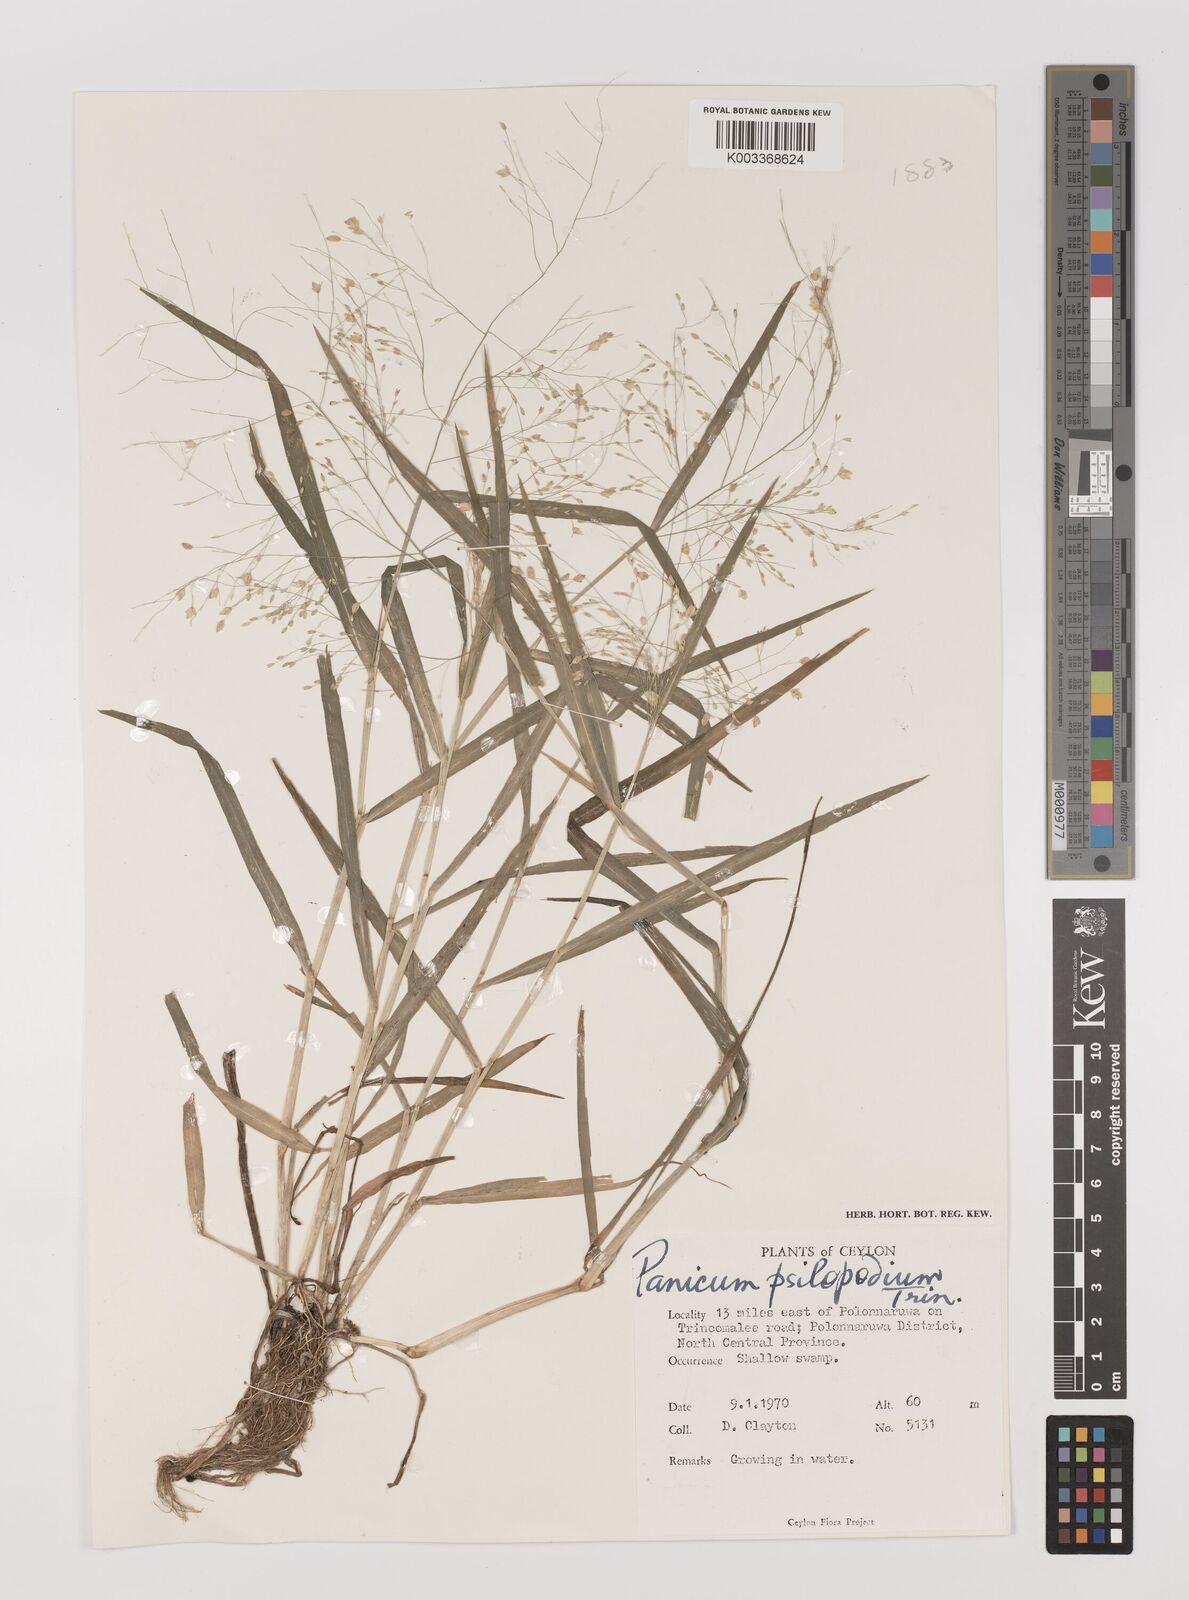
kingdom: Plantae
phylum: Tracheophyta
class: Liliopsida
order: Poales
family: Poaceae
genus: Panicum
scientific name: Panicum sumatrense
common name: Little millet
